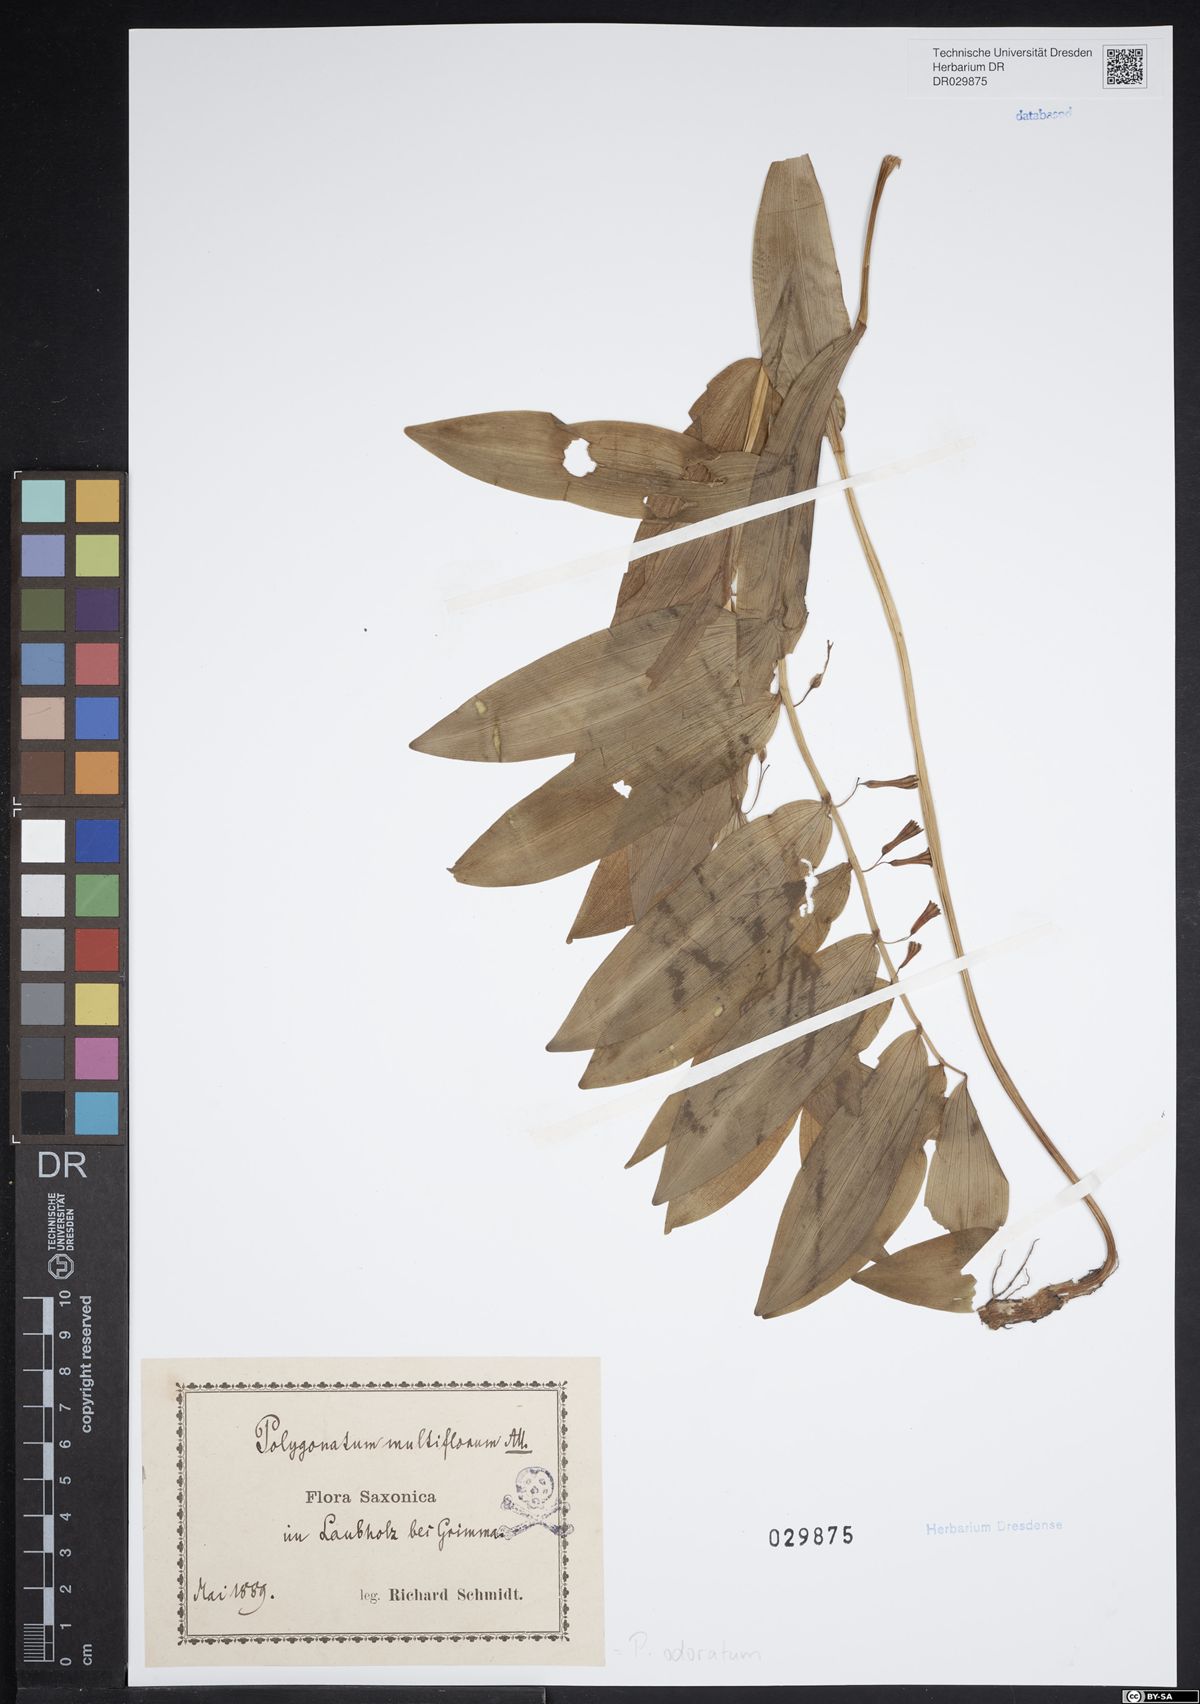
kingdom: Plantae
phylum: Tracheophyta
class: Liliopsida
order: Asparagales
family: Asparagaceae
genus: Polygonatum
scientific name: Polygonatum odoratum
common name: Angular solomon's-seal
